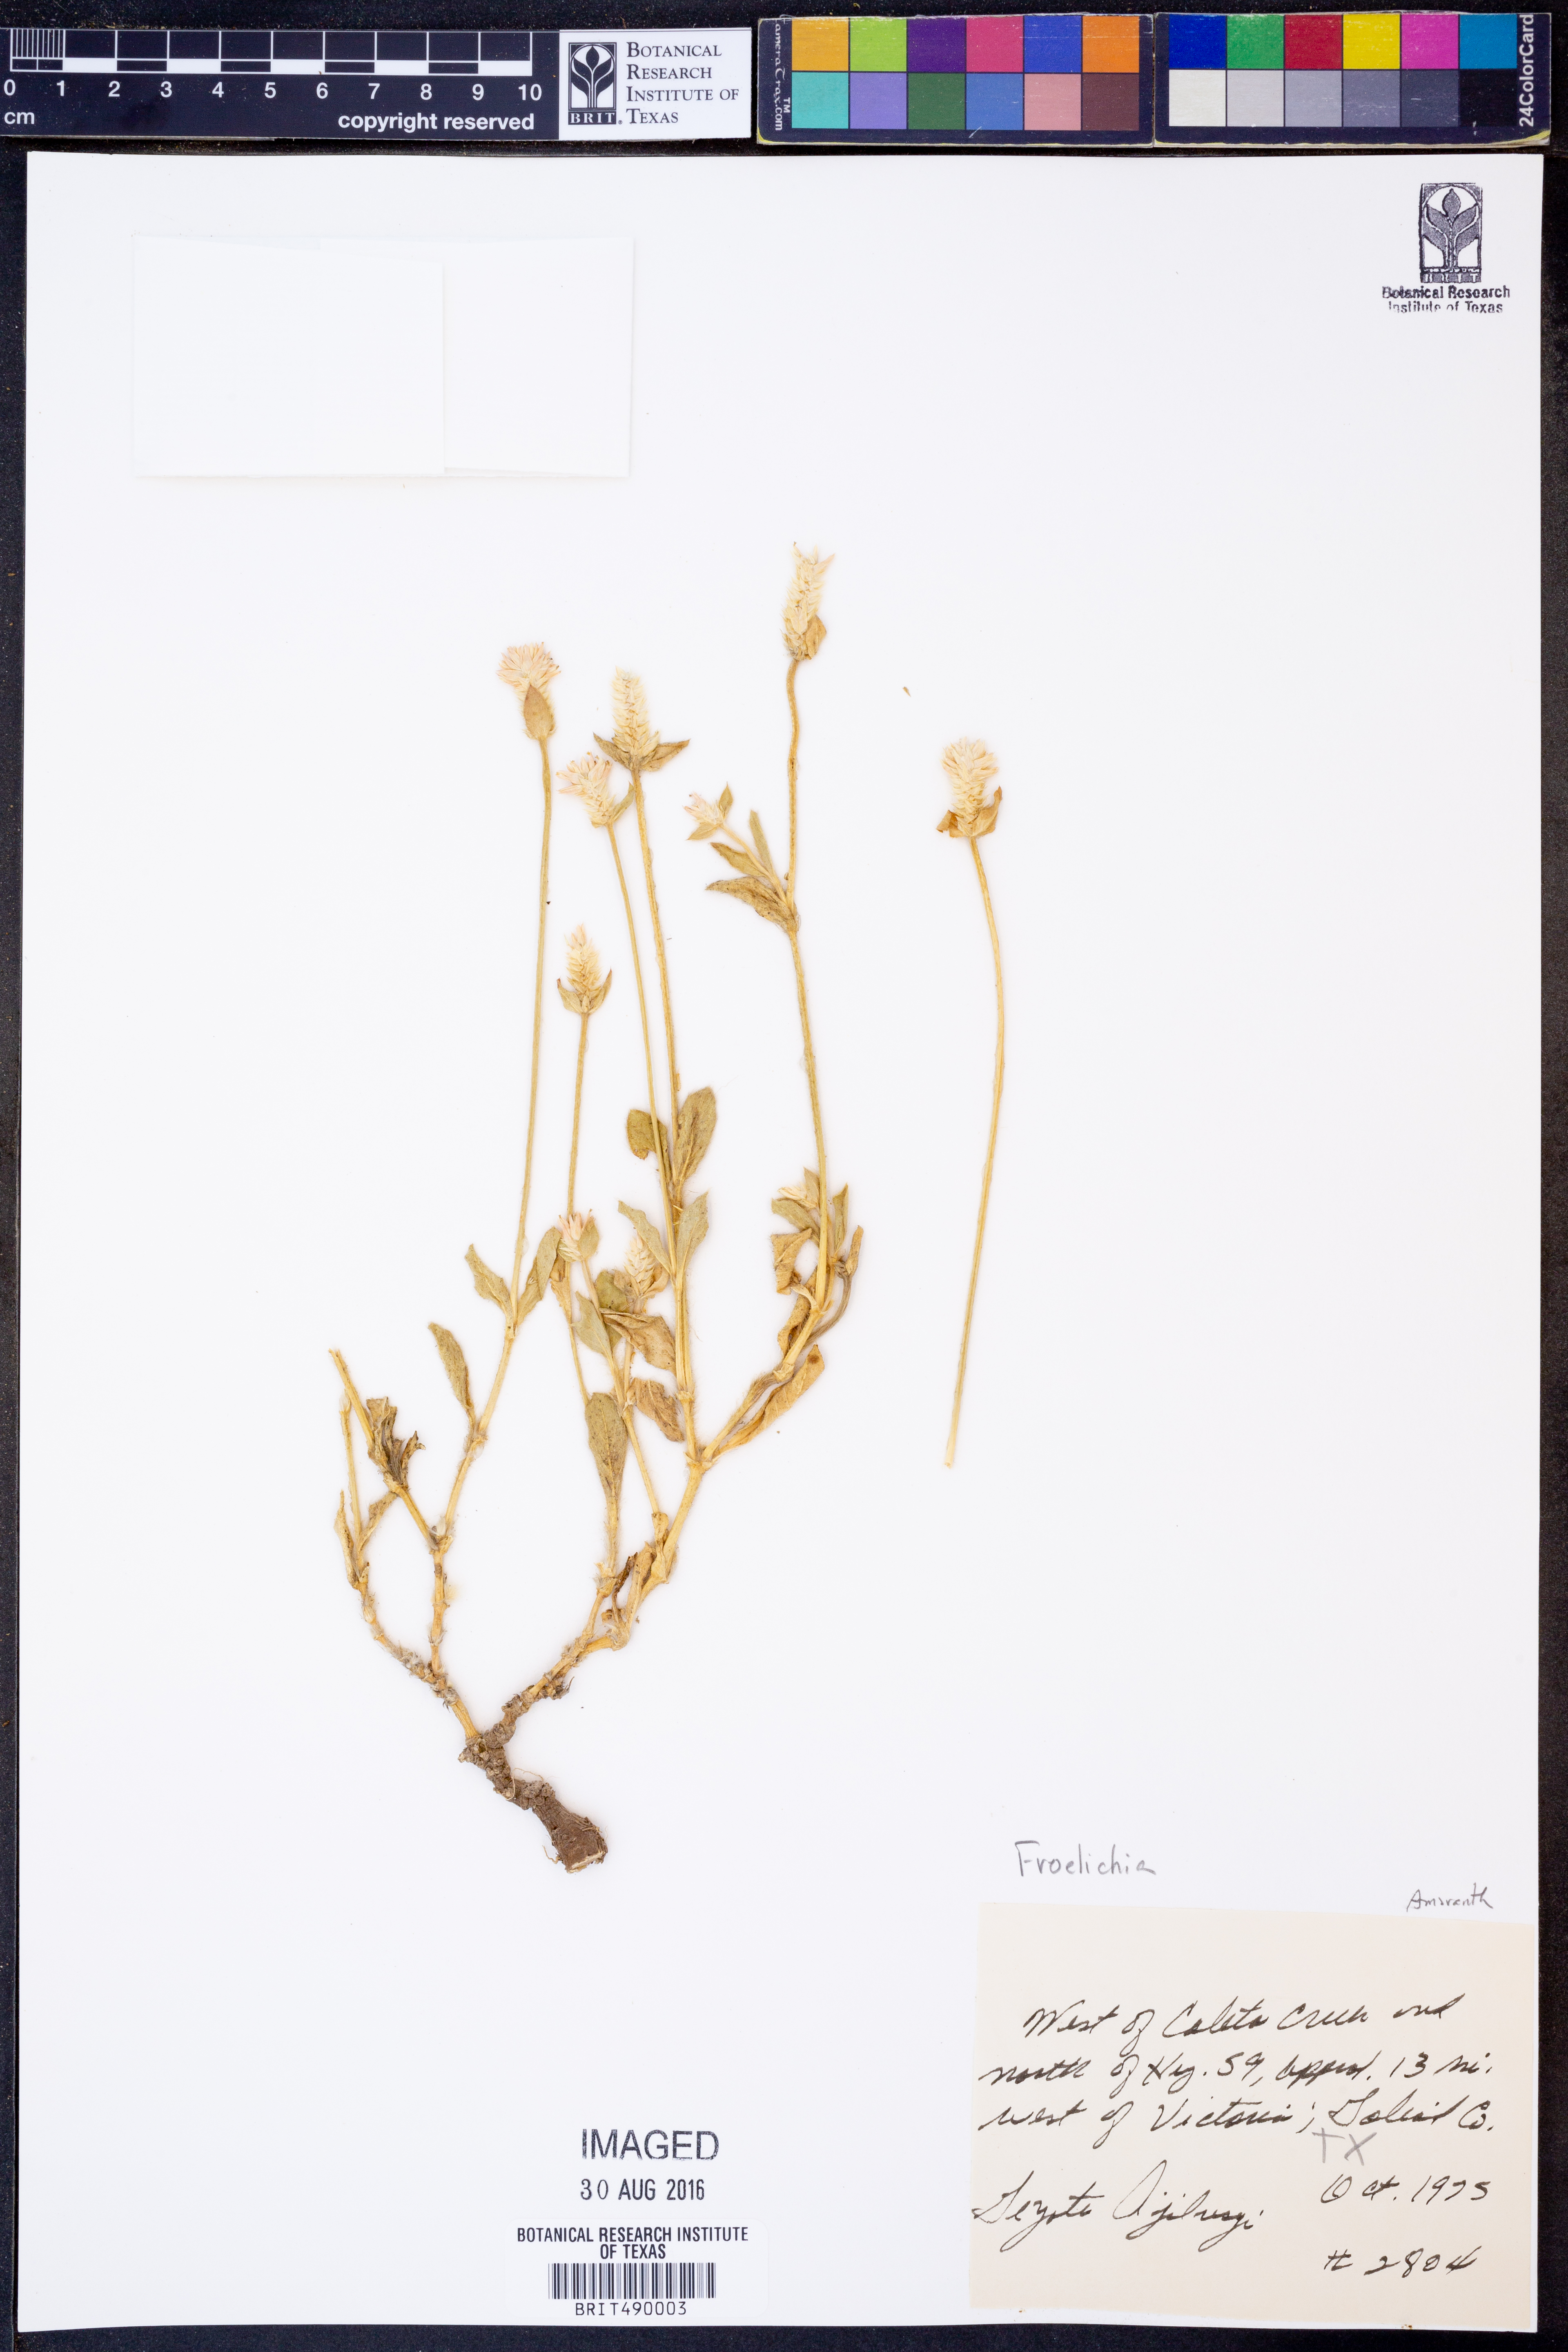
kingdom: Plantae
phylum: Tracheophyta
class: Magnoliopsida
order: Caryophyllales
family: Amaranthaceae
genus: Froelichia
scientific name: Froelichia
